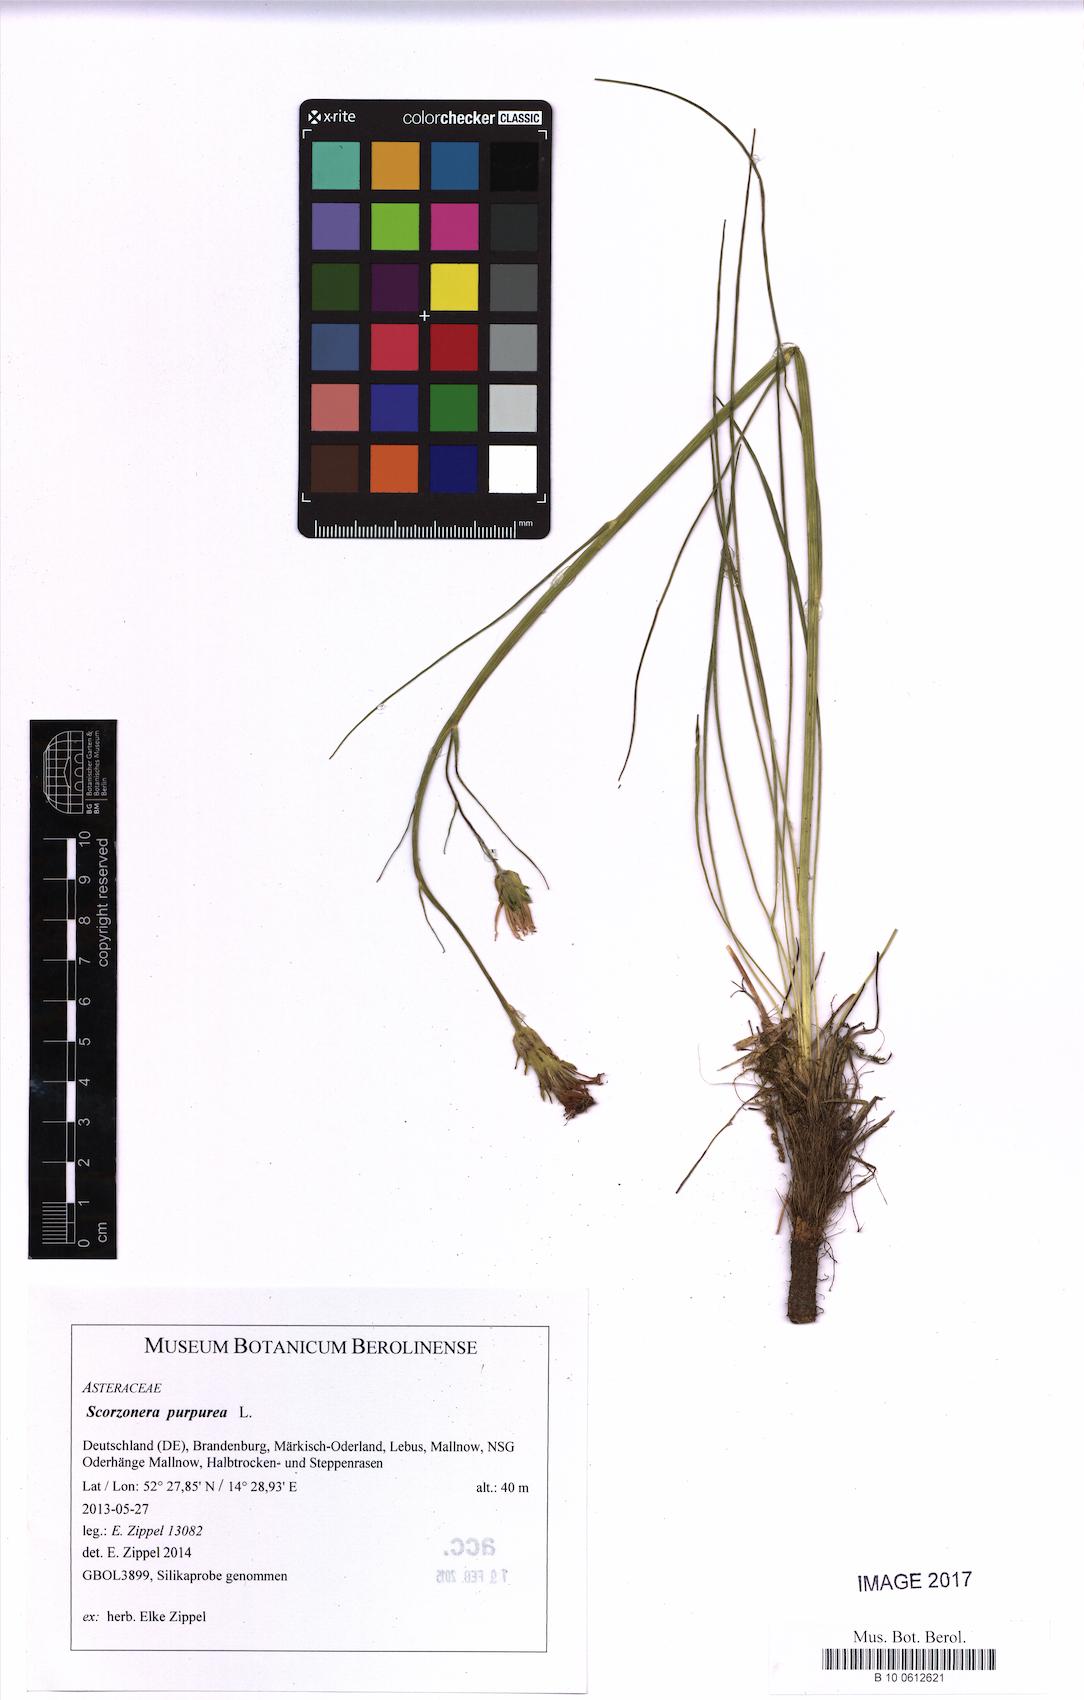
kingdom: Plantae
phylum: Tracheophyta
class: Magnoliopsida
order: Asterales
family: Asteraceae
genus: Scorzonera
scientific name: Scorzonera purpurea
